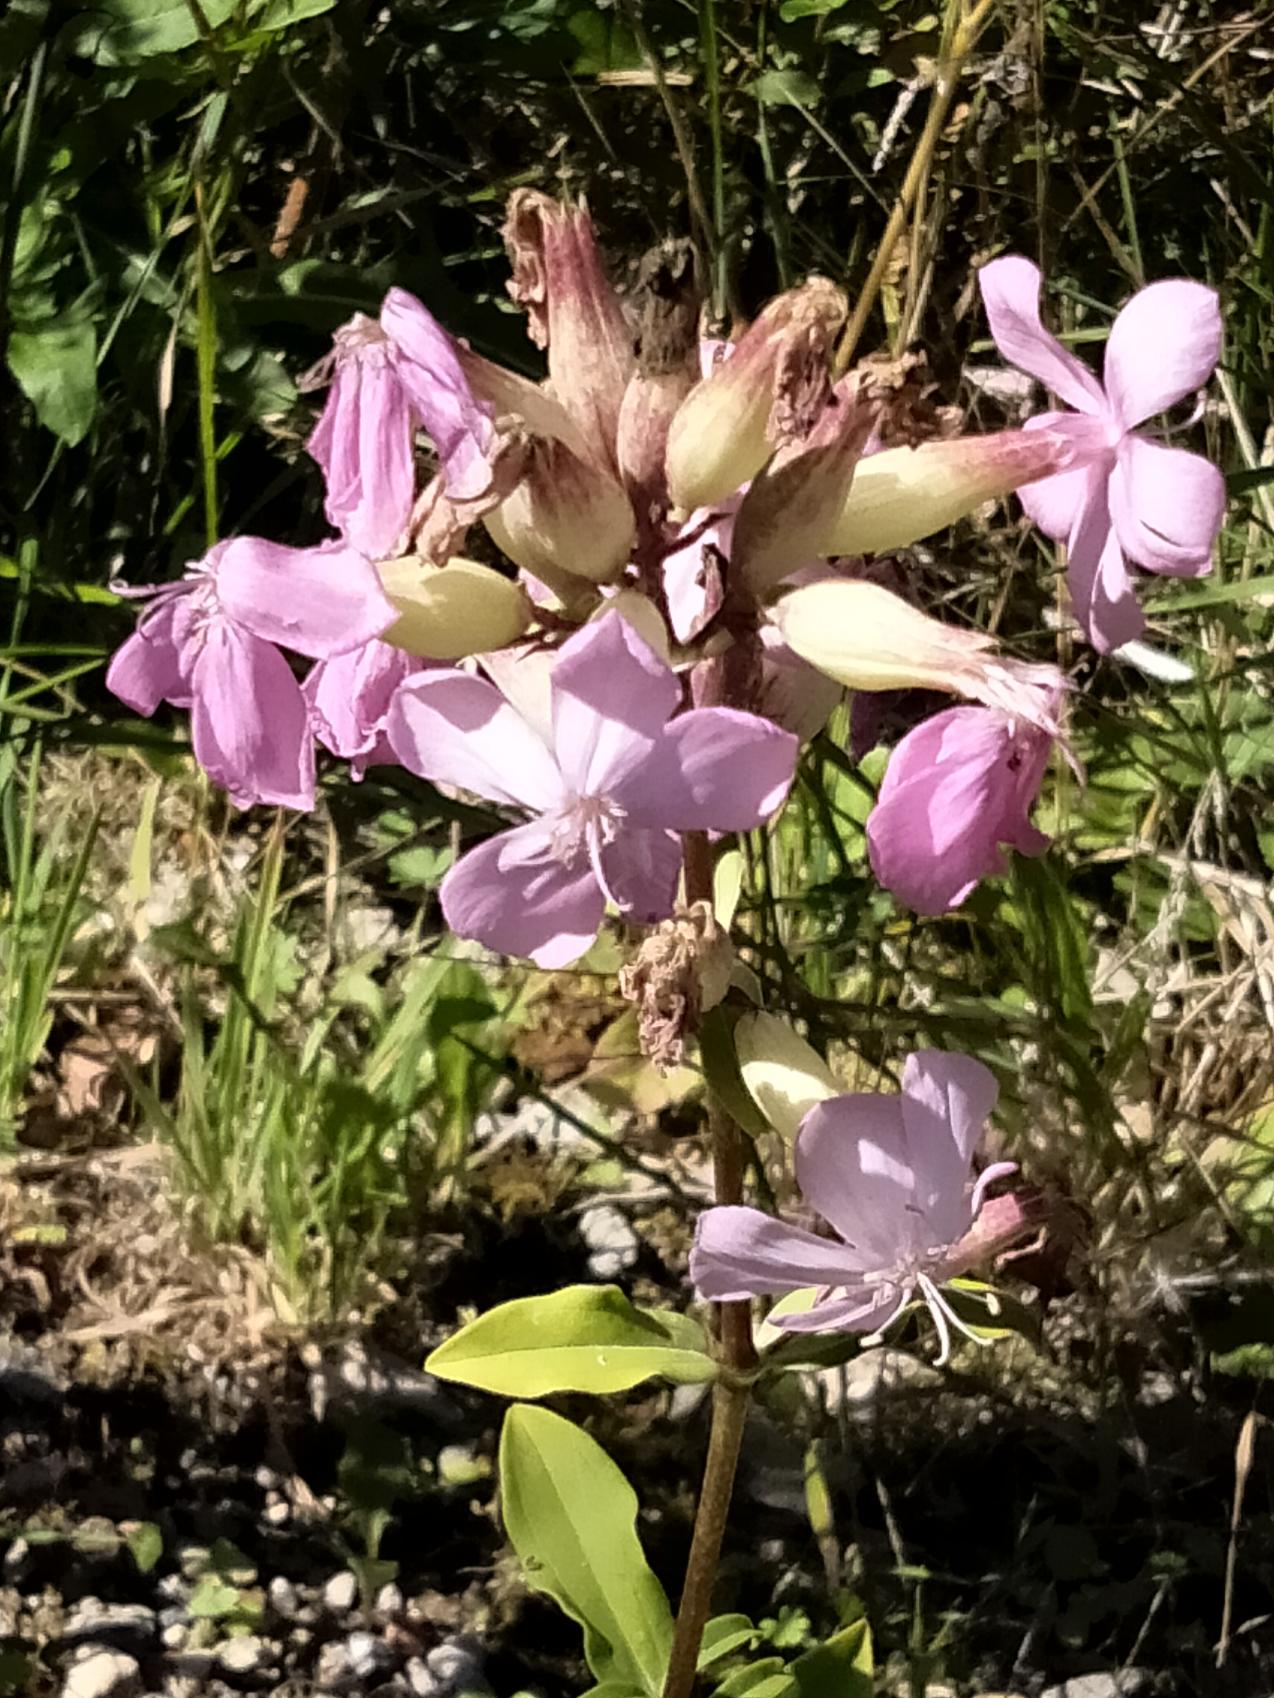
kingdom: Plantae
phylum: Tracheophyta
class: Magnoliopsida
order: Caryophyllales
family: Caryophyllaceae
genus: Saponaria
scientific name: Saponaria officinalis
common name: Sæbeurt
